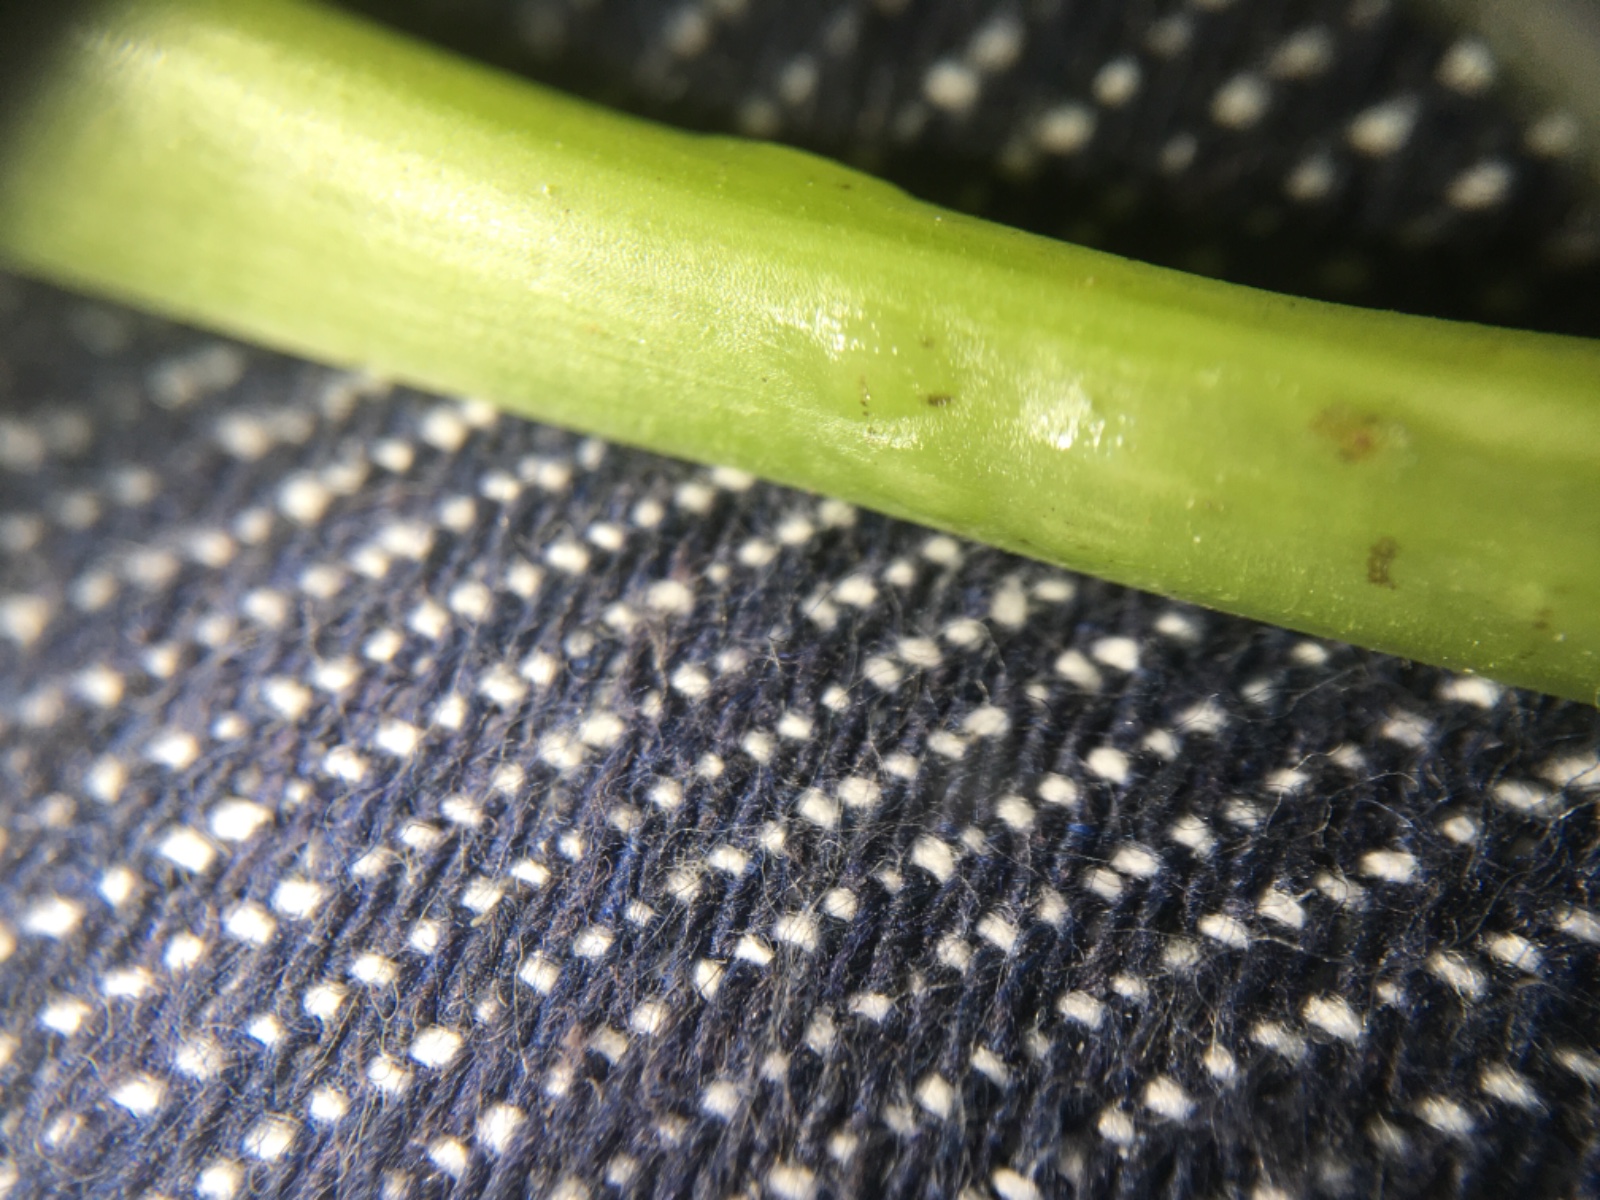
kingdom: Fungi
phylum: Ascomycota
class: Taphrinomycetes
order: Taphrinales
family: Taphrinaceae
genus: Protomyces
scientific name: Protomyces macrosporus
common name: skvalderkål-vablesæk
